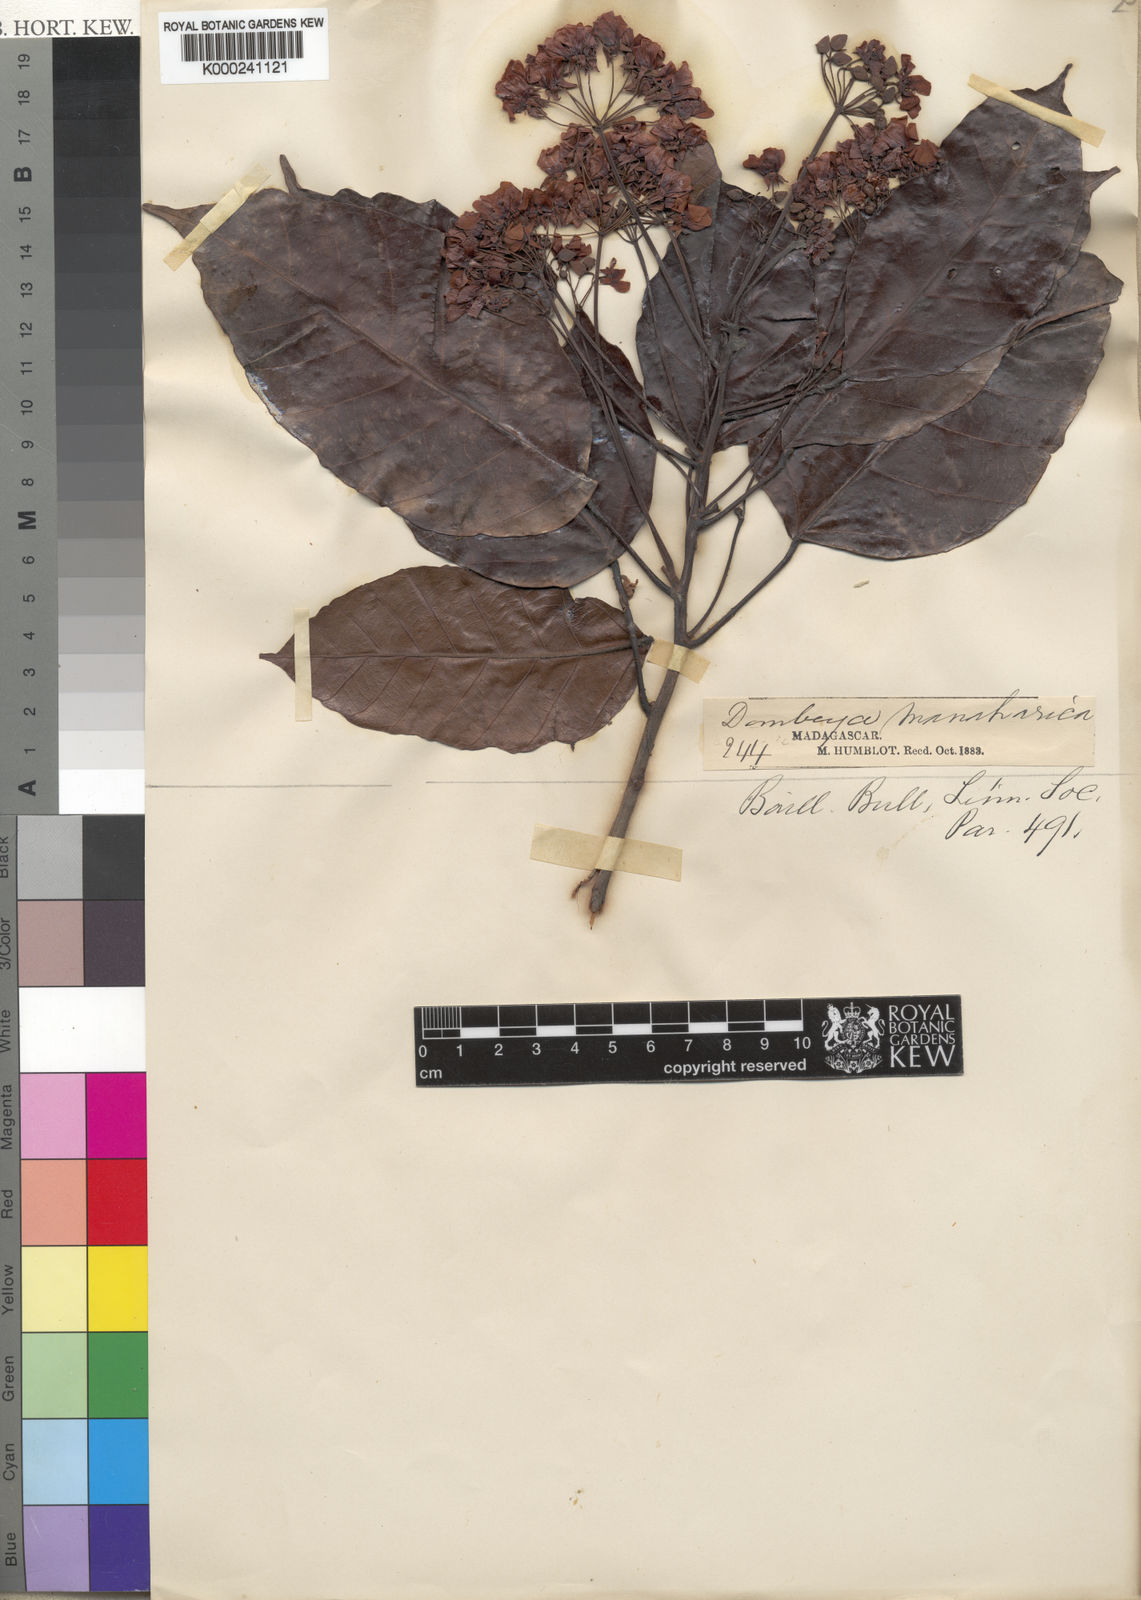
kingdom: Plantae
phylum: Tracheophyta
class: Magnoliopsida
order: Malvales
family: Malvaceae
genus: Dombeya
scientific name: Dombeya decanthera
